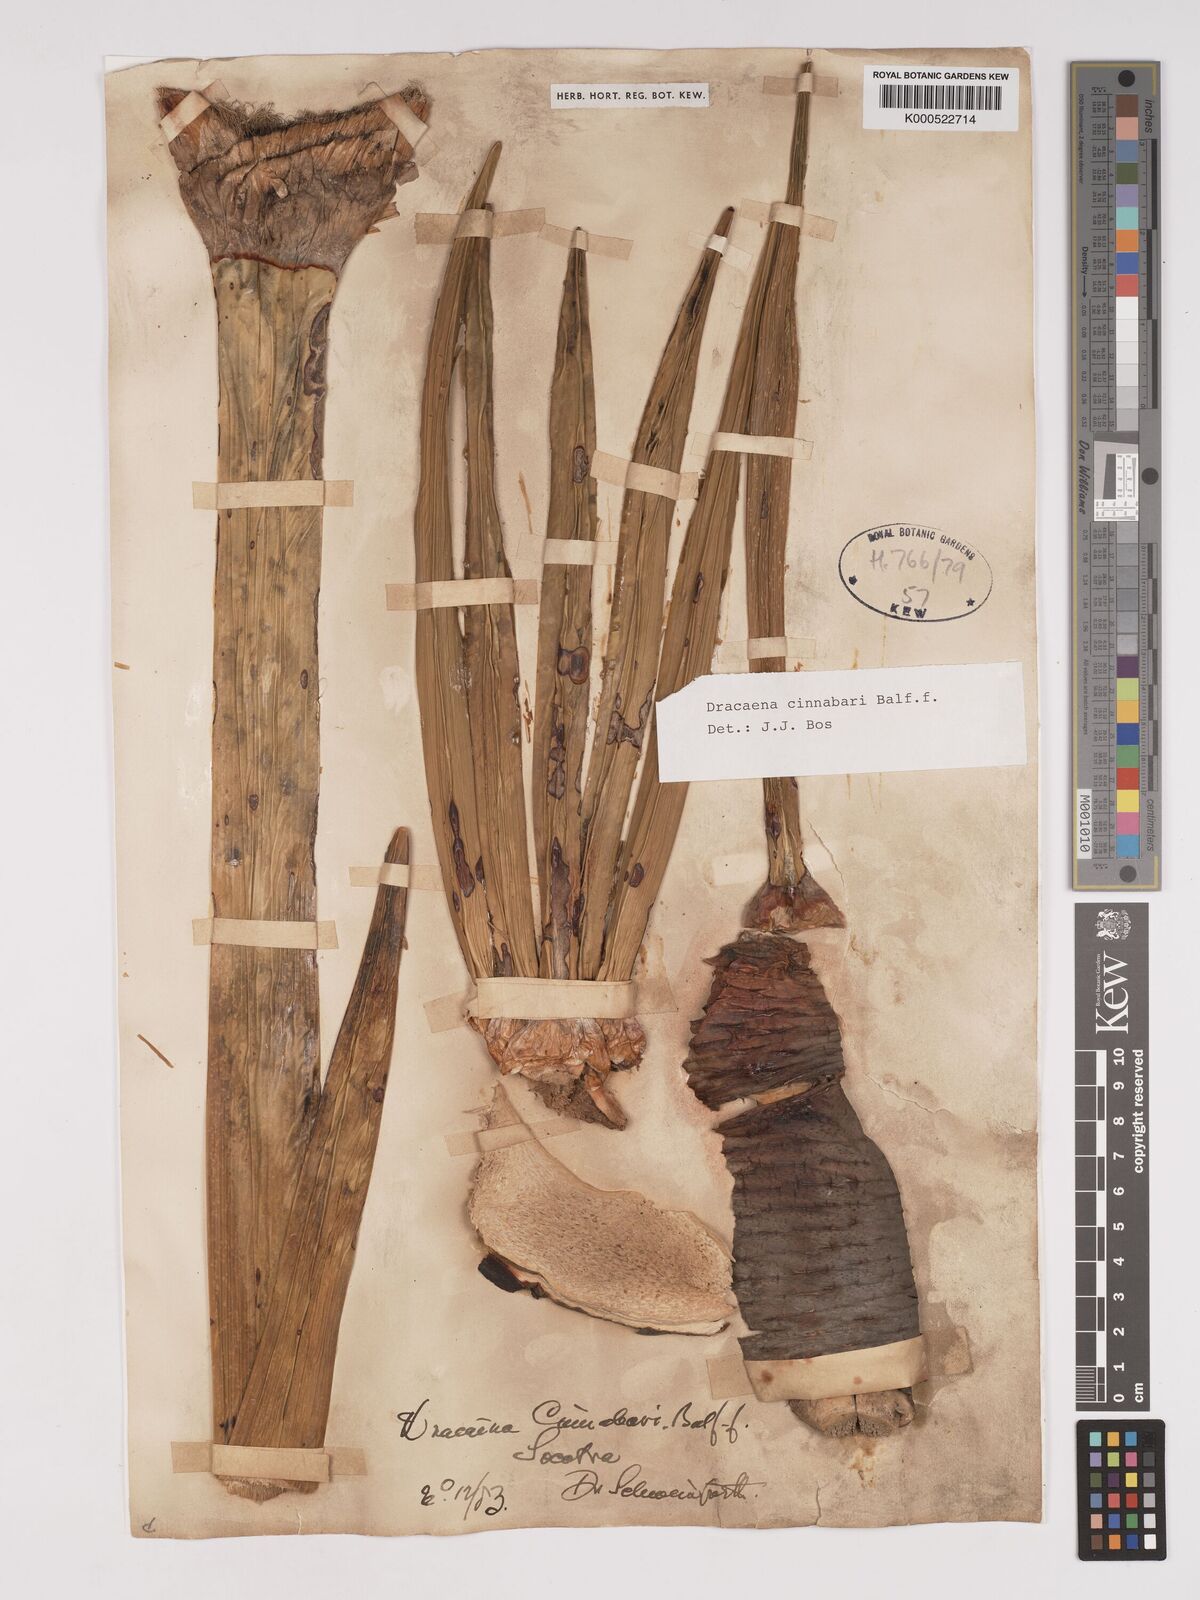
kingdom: Plantae
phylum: Tracheophyta
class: Liliopsida
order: Asparagales
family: Asparagaceae
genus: Dracaena
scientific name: Dracaena cinnabari
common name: Dragon's blood tree
